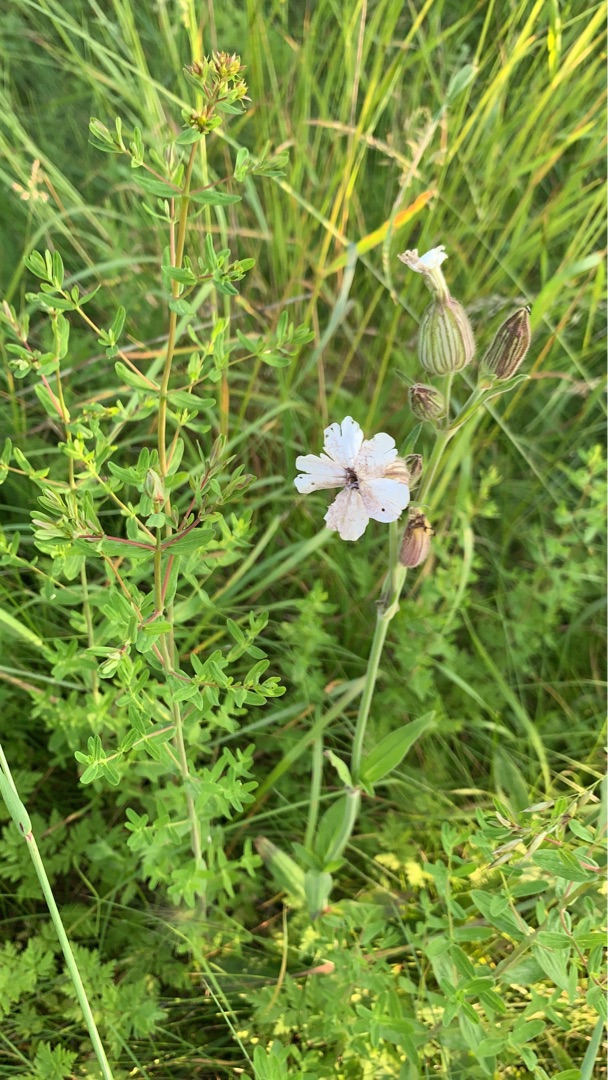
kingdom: Plantae
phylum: Tracheophyta
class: Magnoliopsida
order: Caryophyllales
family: Caryophyllaceae
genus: Silene
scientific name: Silene latifolia
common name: Aftenpragtstjerne
